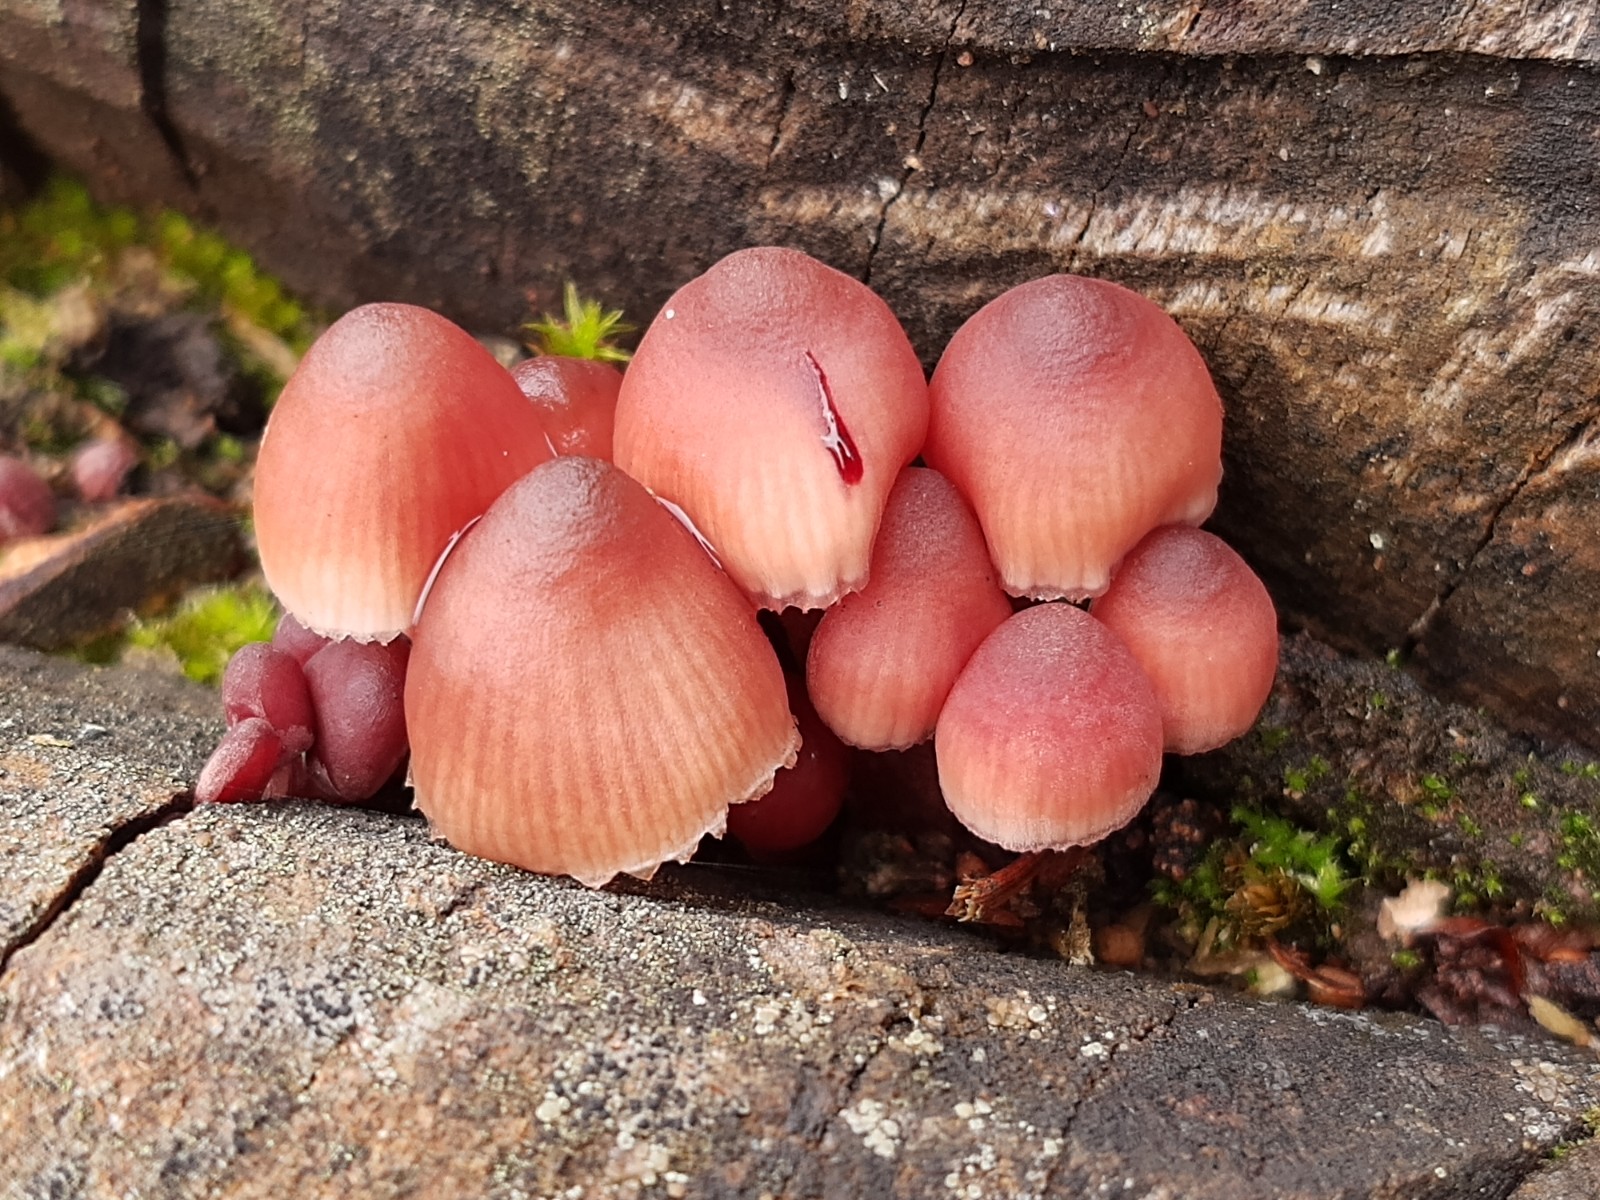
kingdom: Fungi
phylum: Basidiomycota
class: Agaricomycetes
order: Agaricales
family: Mycenaceae
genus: Mycena
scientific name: Mycena haematopus
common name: blødende huesvamp
